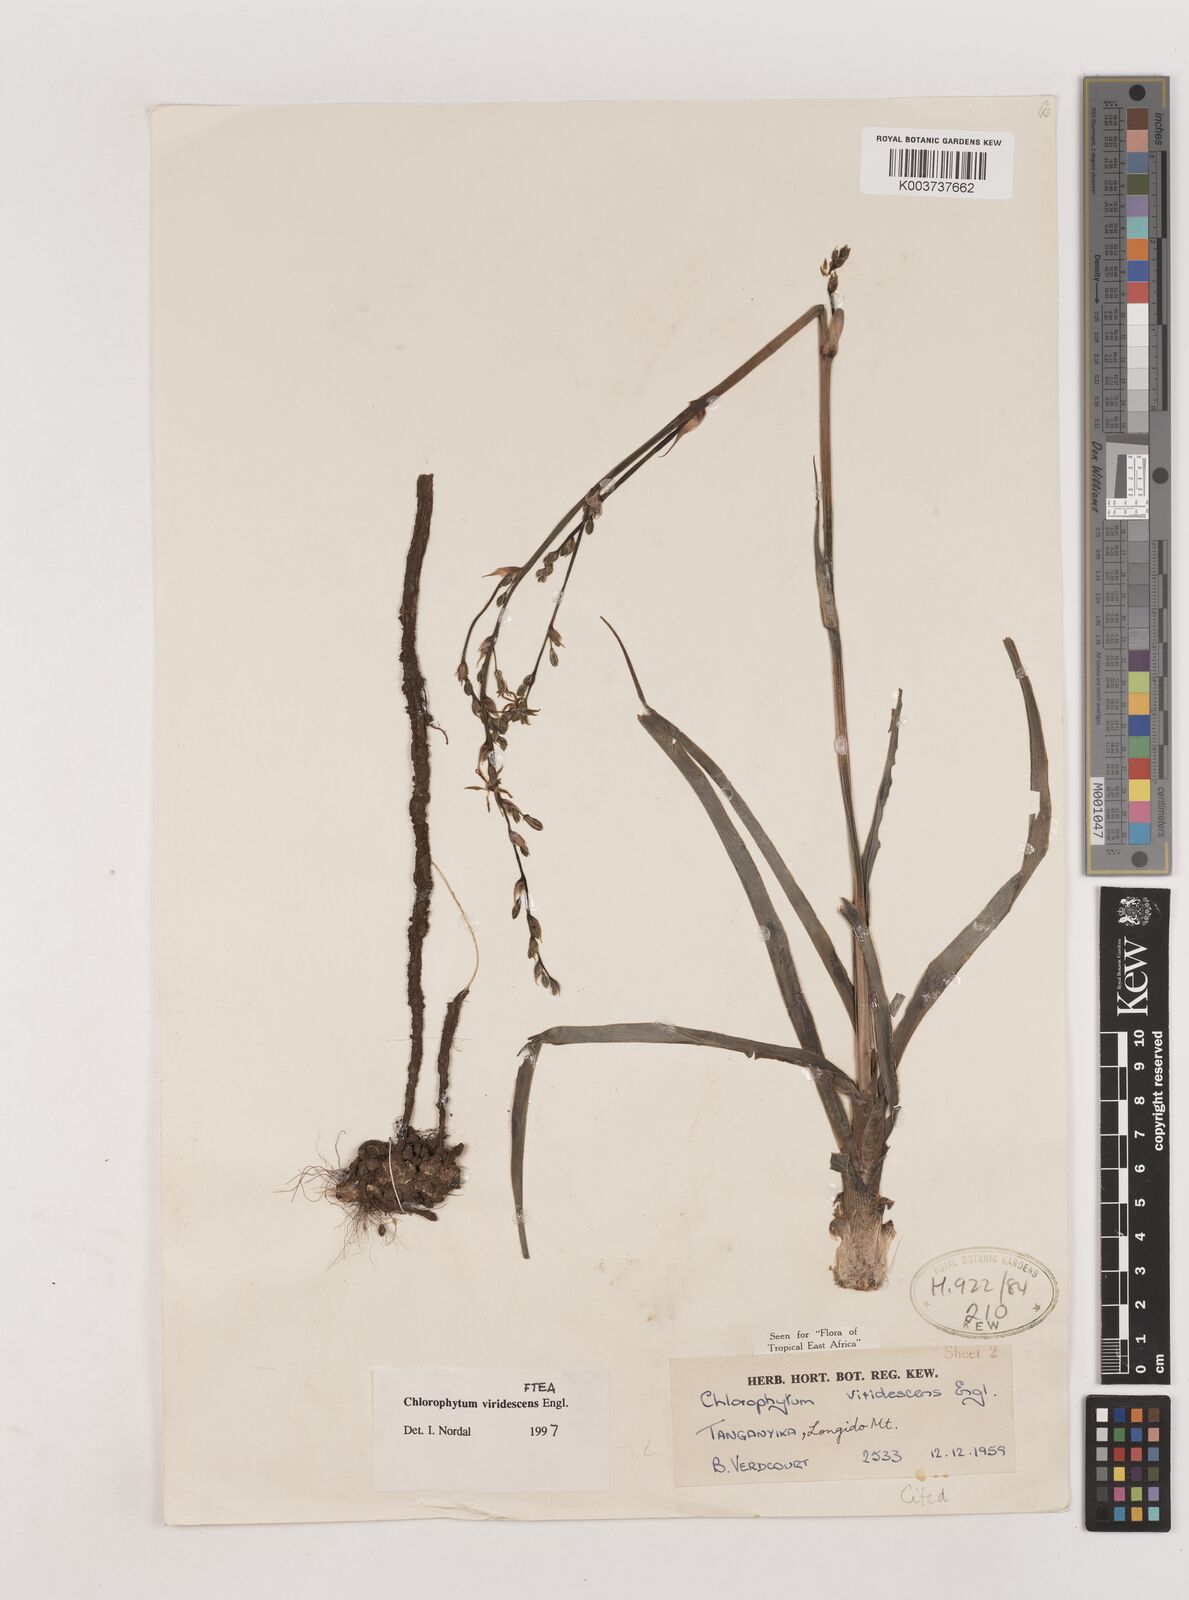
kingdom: Plantae
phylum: Tracheophyta
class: Liliopsida
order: Asparagales
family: Asparagaceae
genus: Chlorophytum
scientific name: Chlorophytum viridescens
